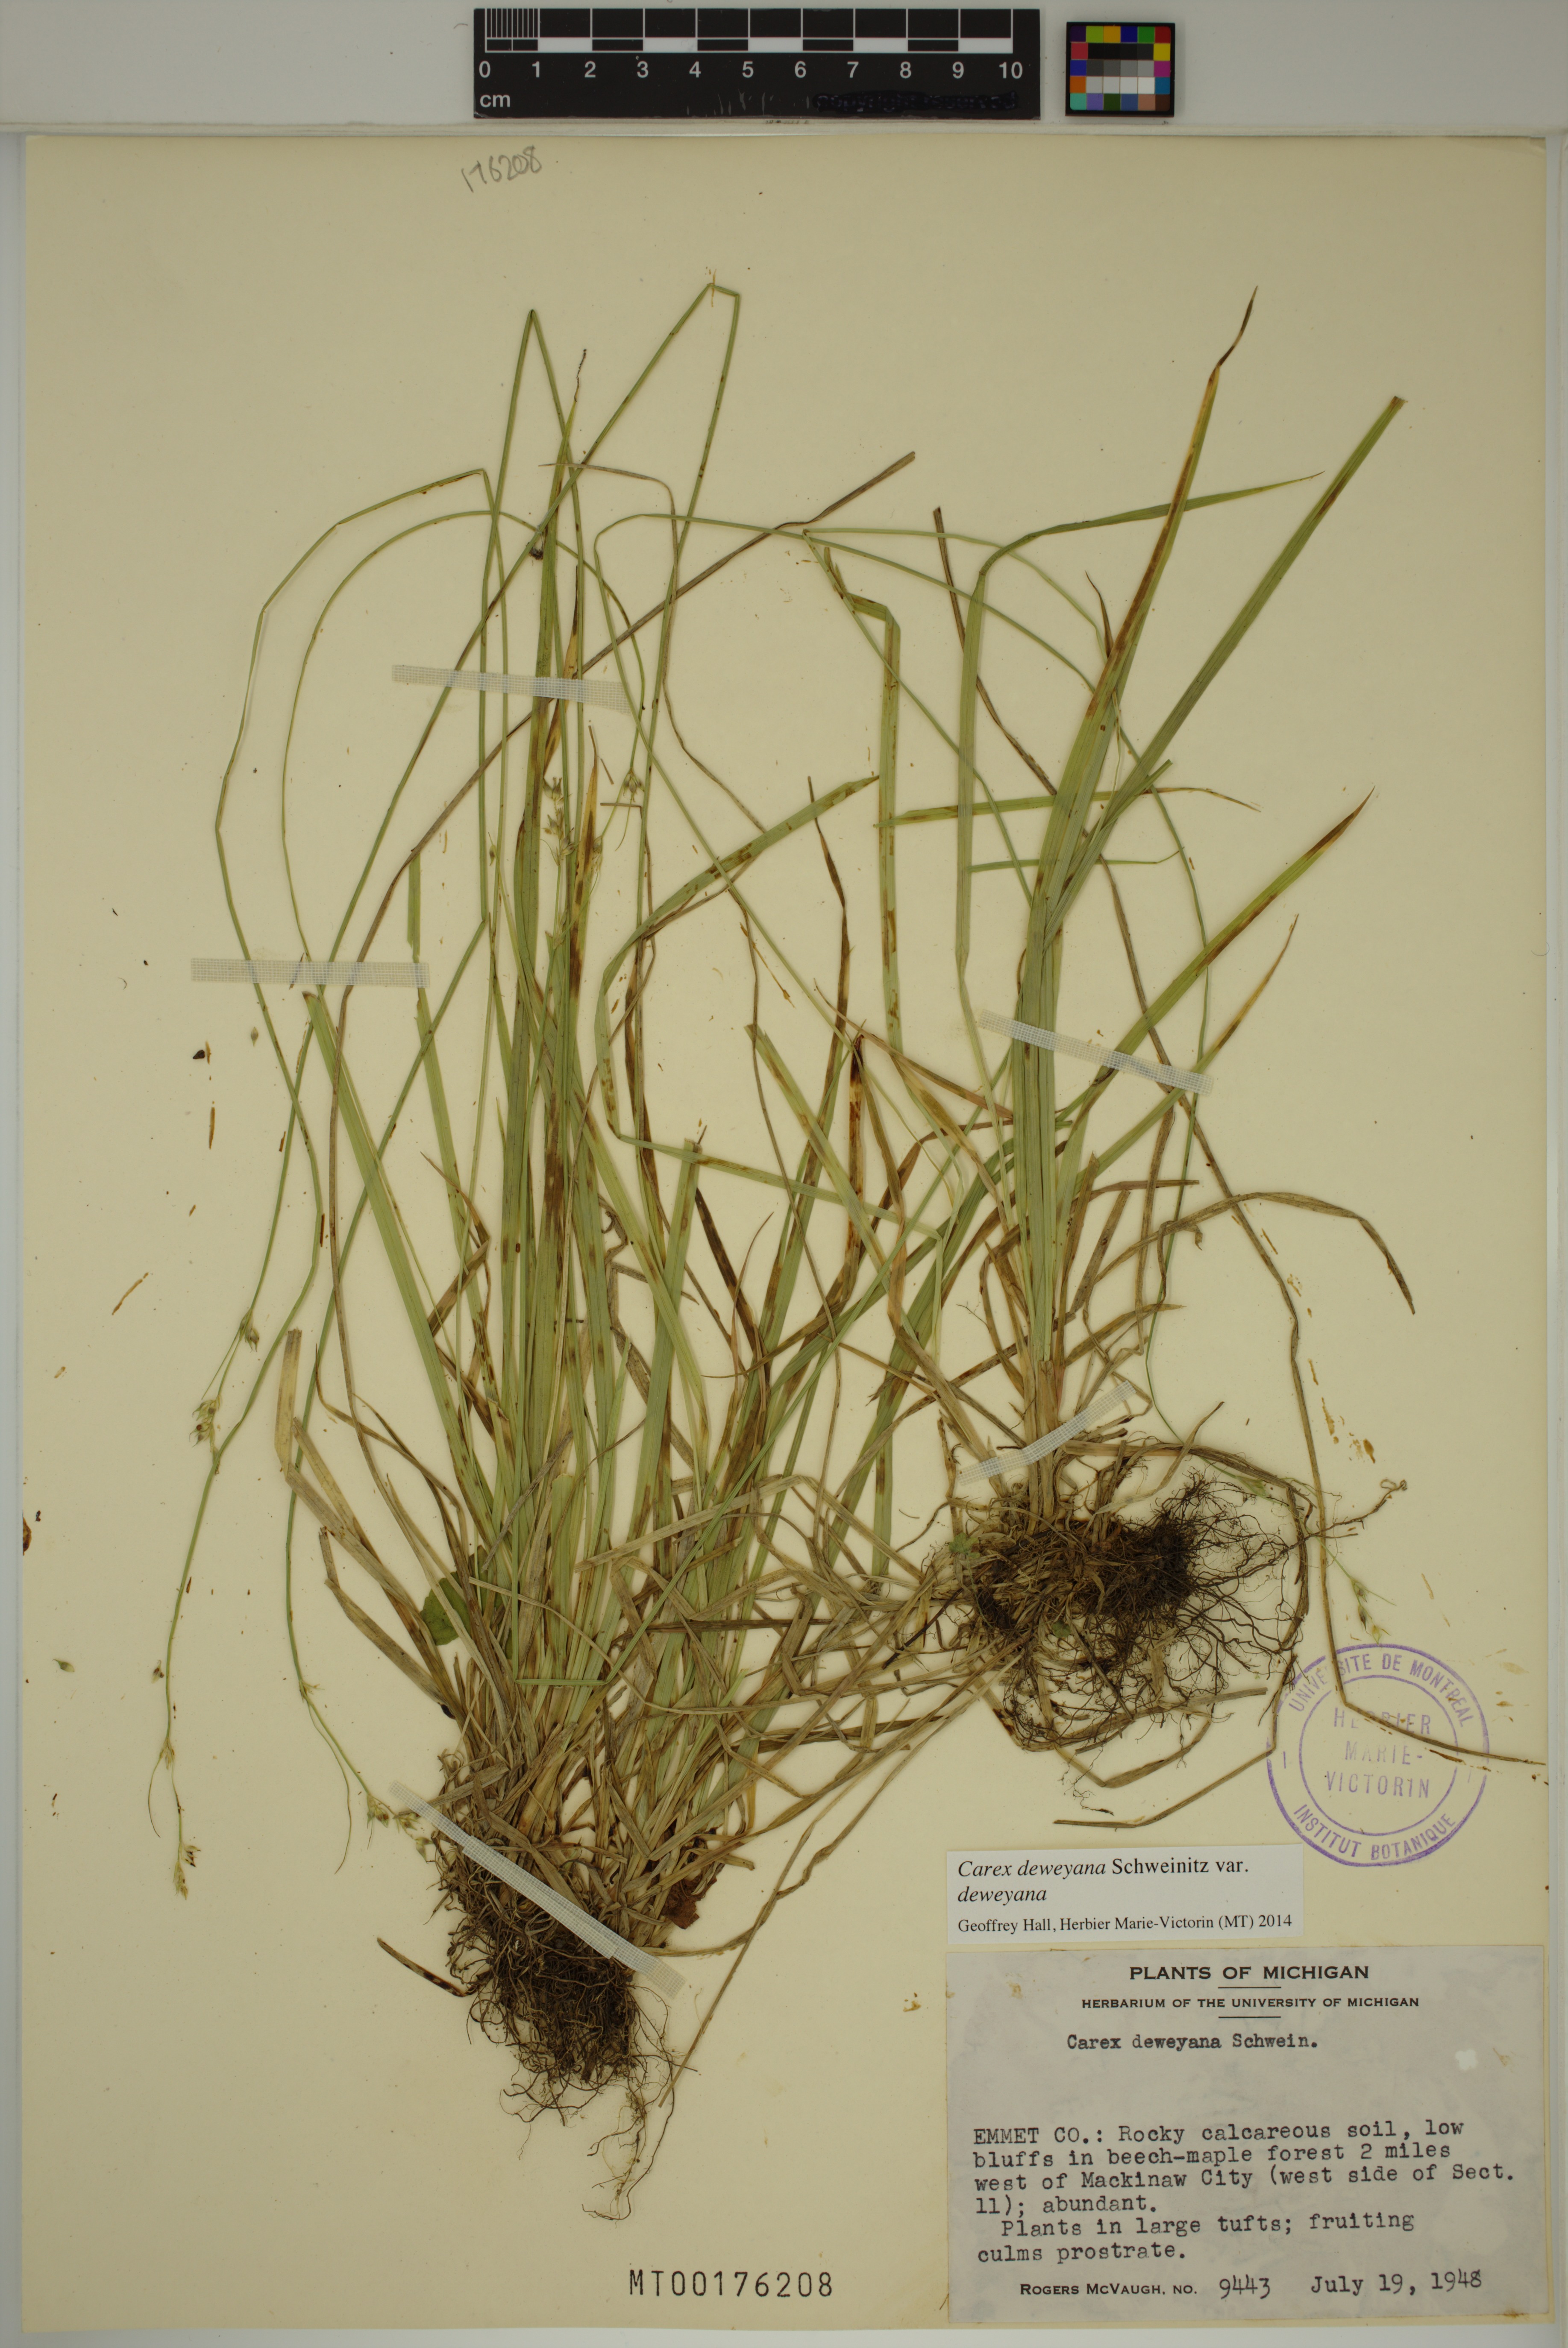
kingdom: Plantae
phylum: Tracheophyta
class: Liliopsida
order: Poales
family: Cyperaceae
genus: Carex
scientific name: Carex deweyana
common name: Dewey's sedge
